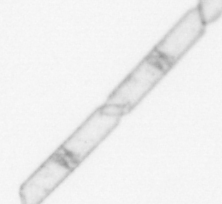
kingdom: Chromista
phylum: Ochrophyta
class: Bacillariophyceae
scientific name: Bacillariophyceae
